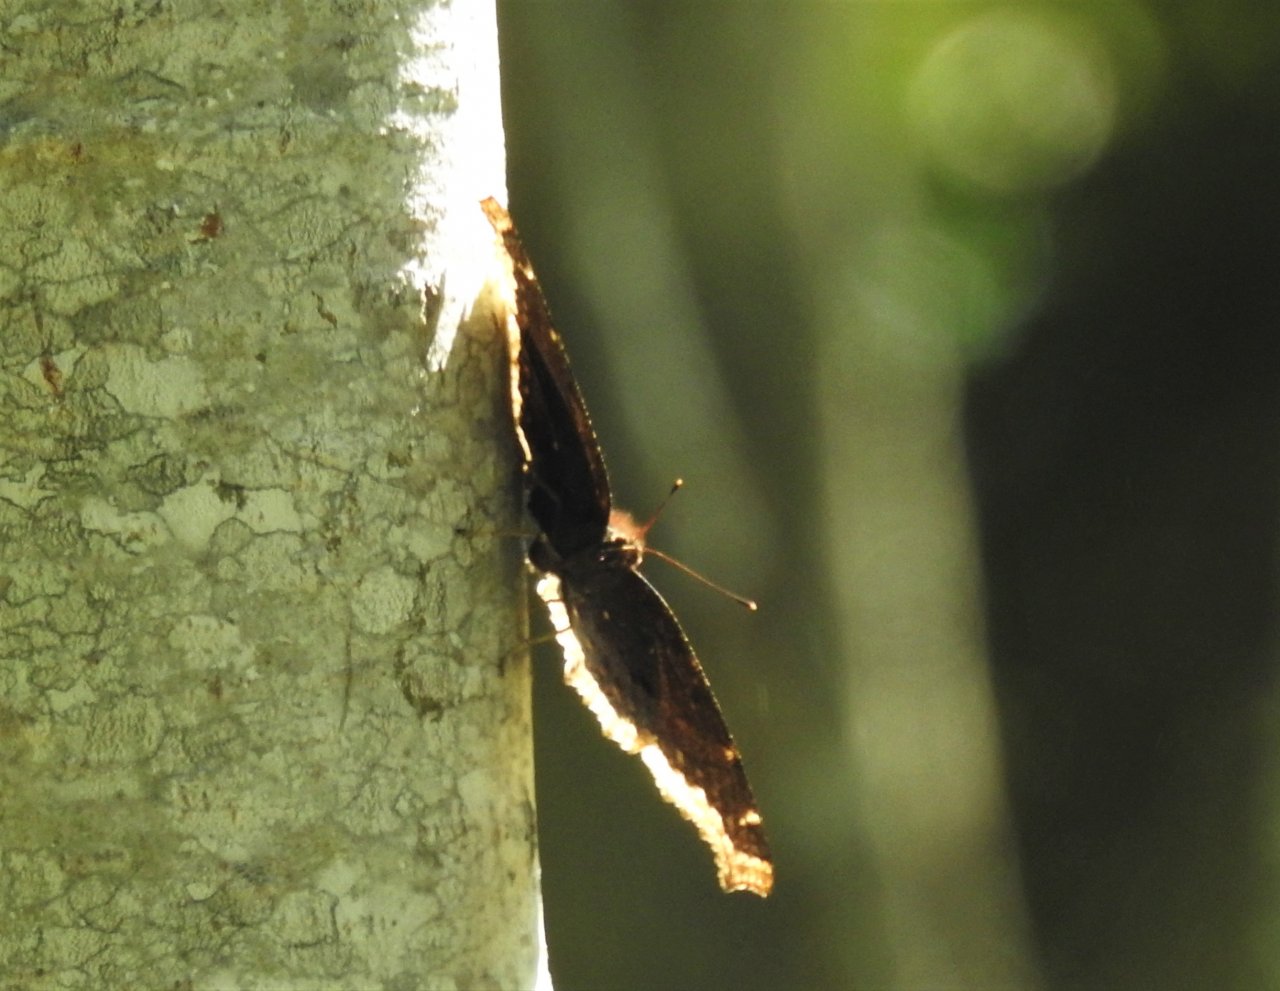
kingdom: Animalia
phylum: Arthropoda
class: Insecta
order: Lepidoptera
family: Nymphalidae
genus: Nymphalis
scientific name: Nymphalis antiopa
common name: Mourning Cloak
